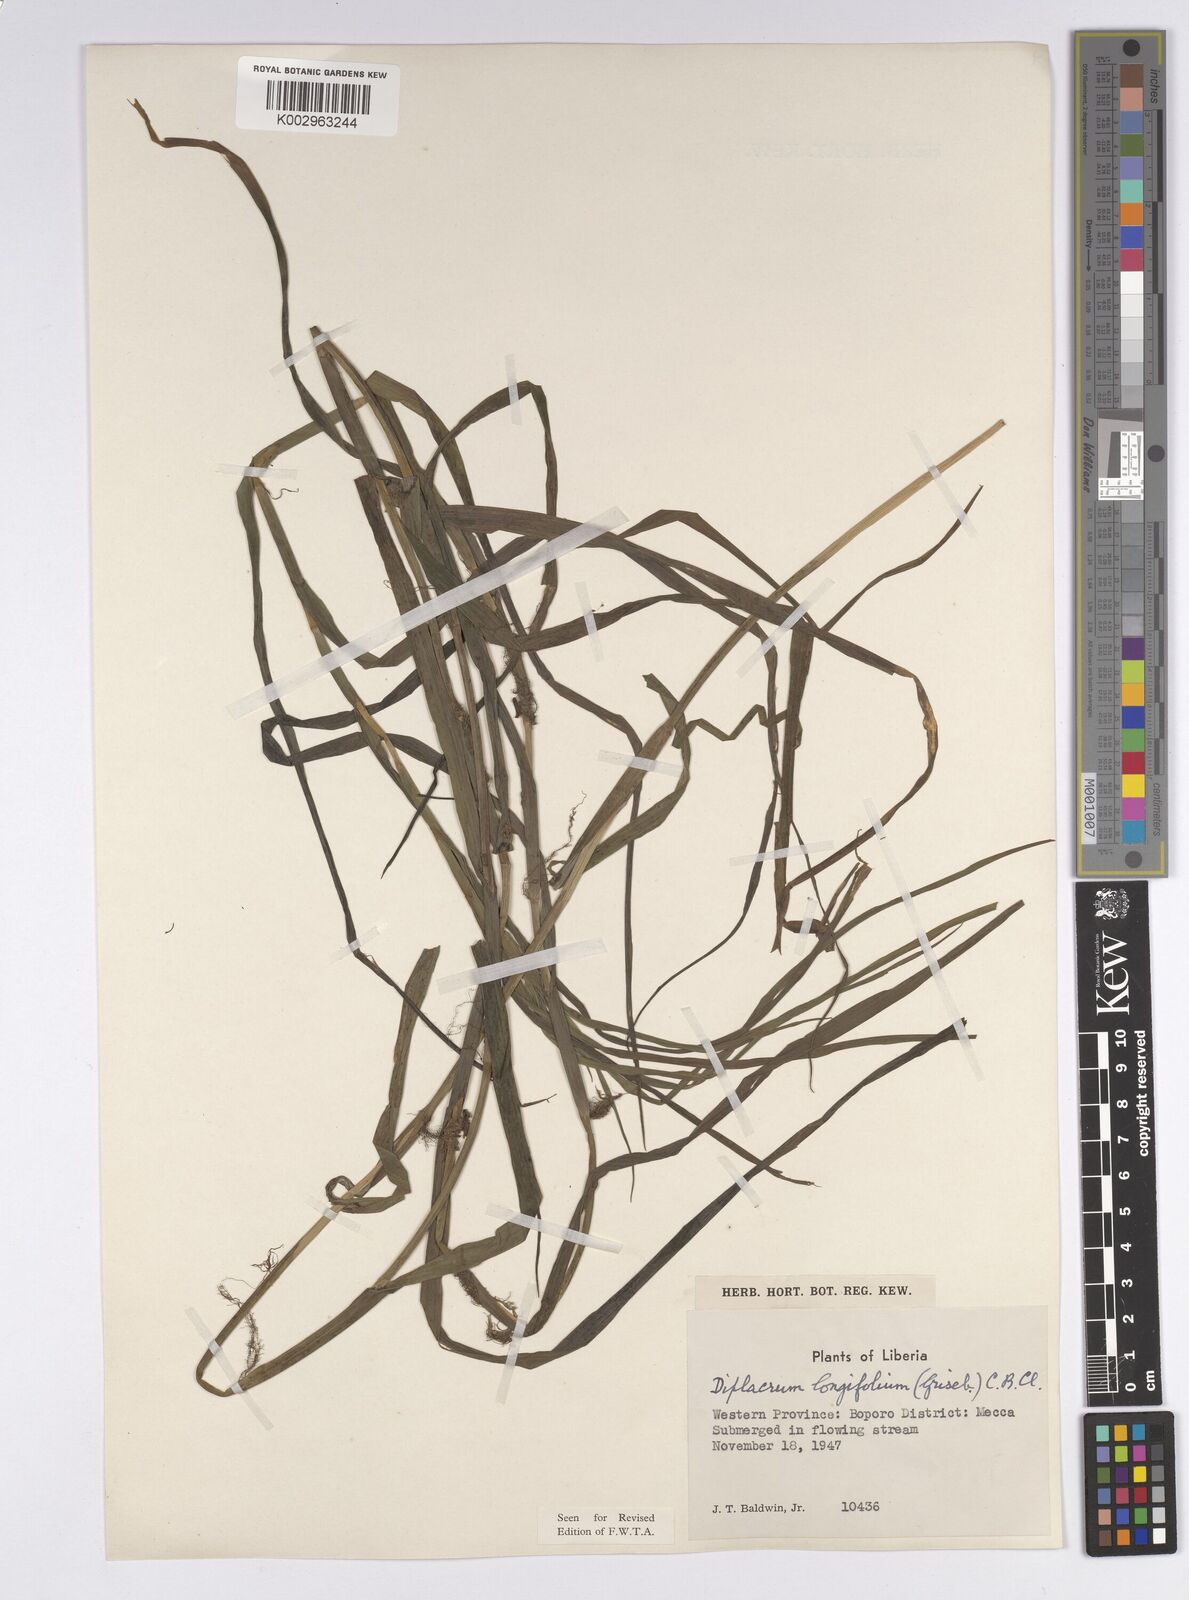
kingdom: Plantae
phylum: Tracheophyta
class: Liliopsida
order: Poales
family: Cyperaceae
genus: Diplacrum
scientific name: Diplacrum capitatum
